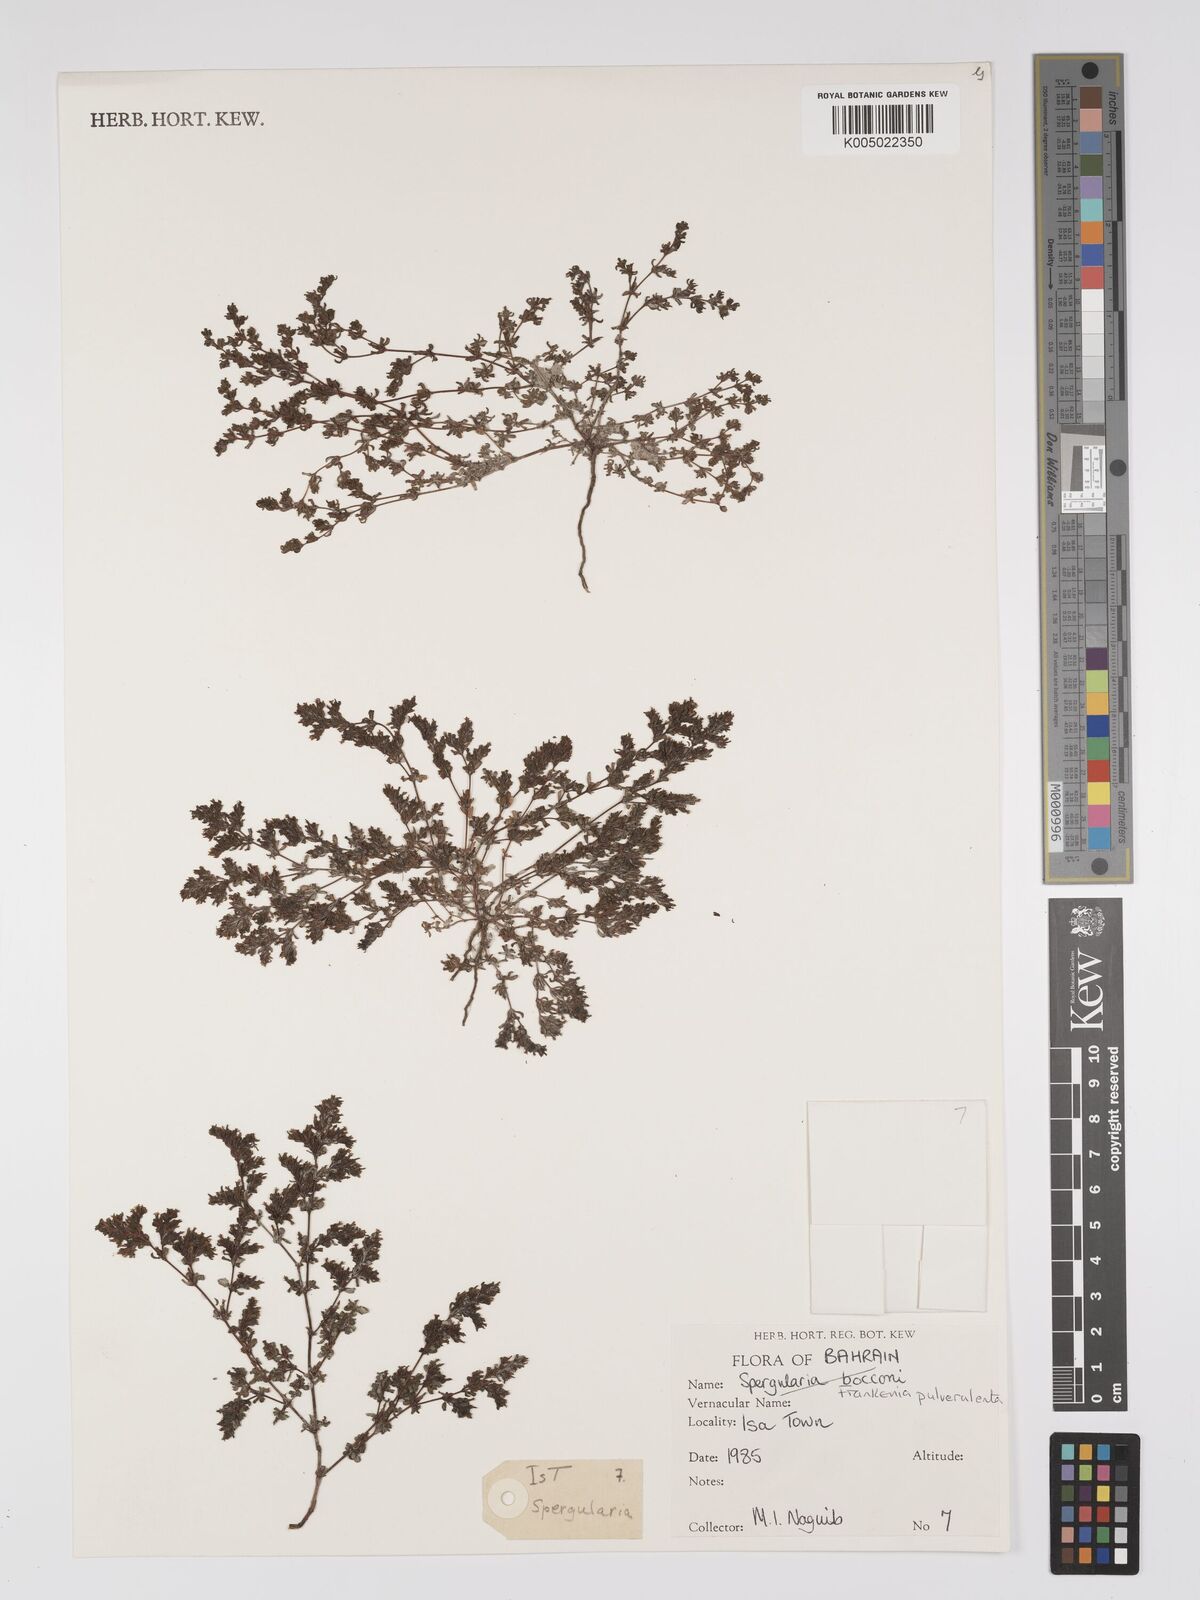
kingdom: Plantae
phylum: Tracheophyta
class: Magnoliopsida
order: Caryophyllales
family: Frankeniaceae
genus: Frankenia
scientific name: Frankenia pulverulenta
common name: European seaheath
